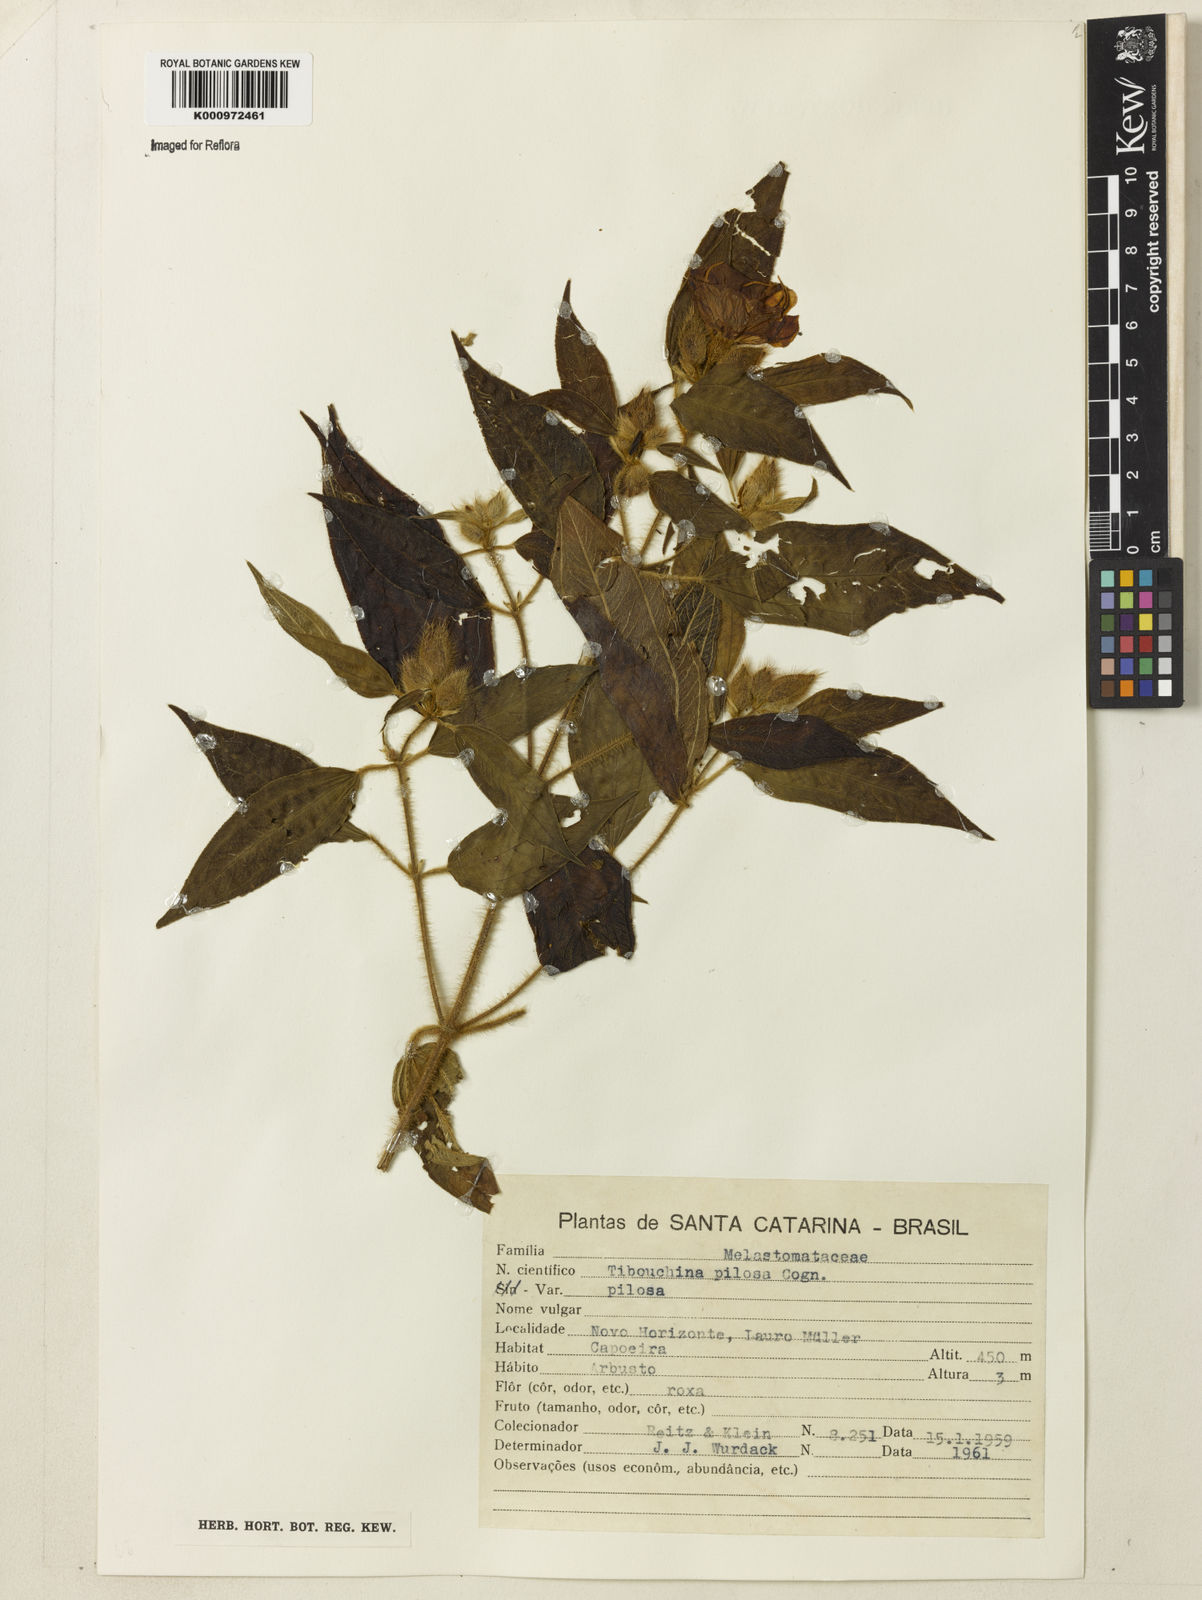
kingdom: Plantae
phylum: Tracheophyta
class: Magnoliopsida
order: Myrtales
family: Melastomataceae
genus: Pleroma
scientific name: Pleroma pilosum
